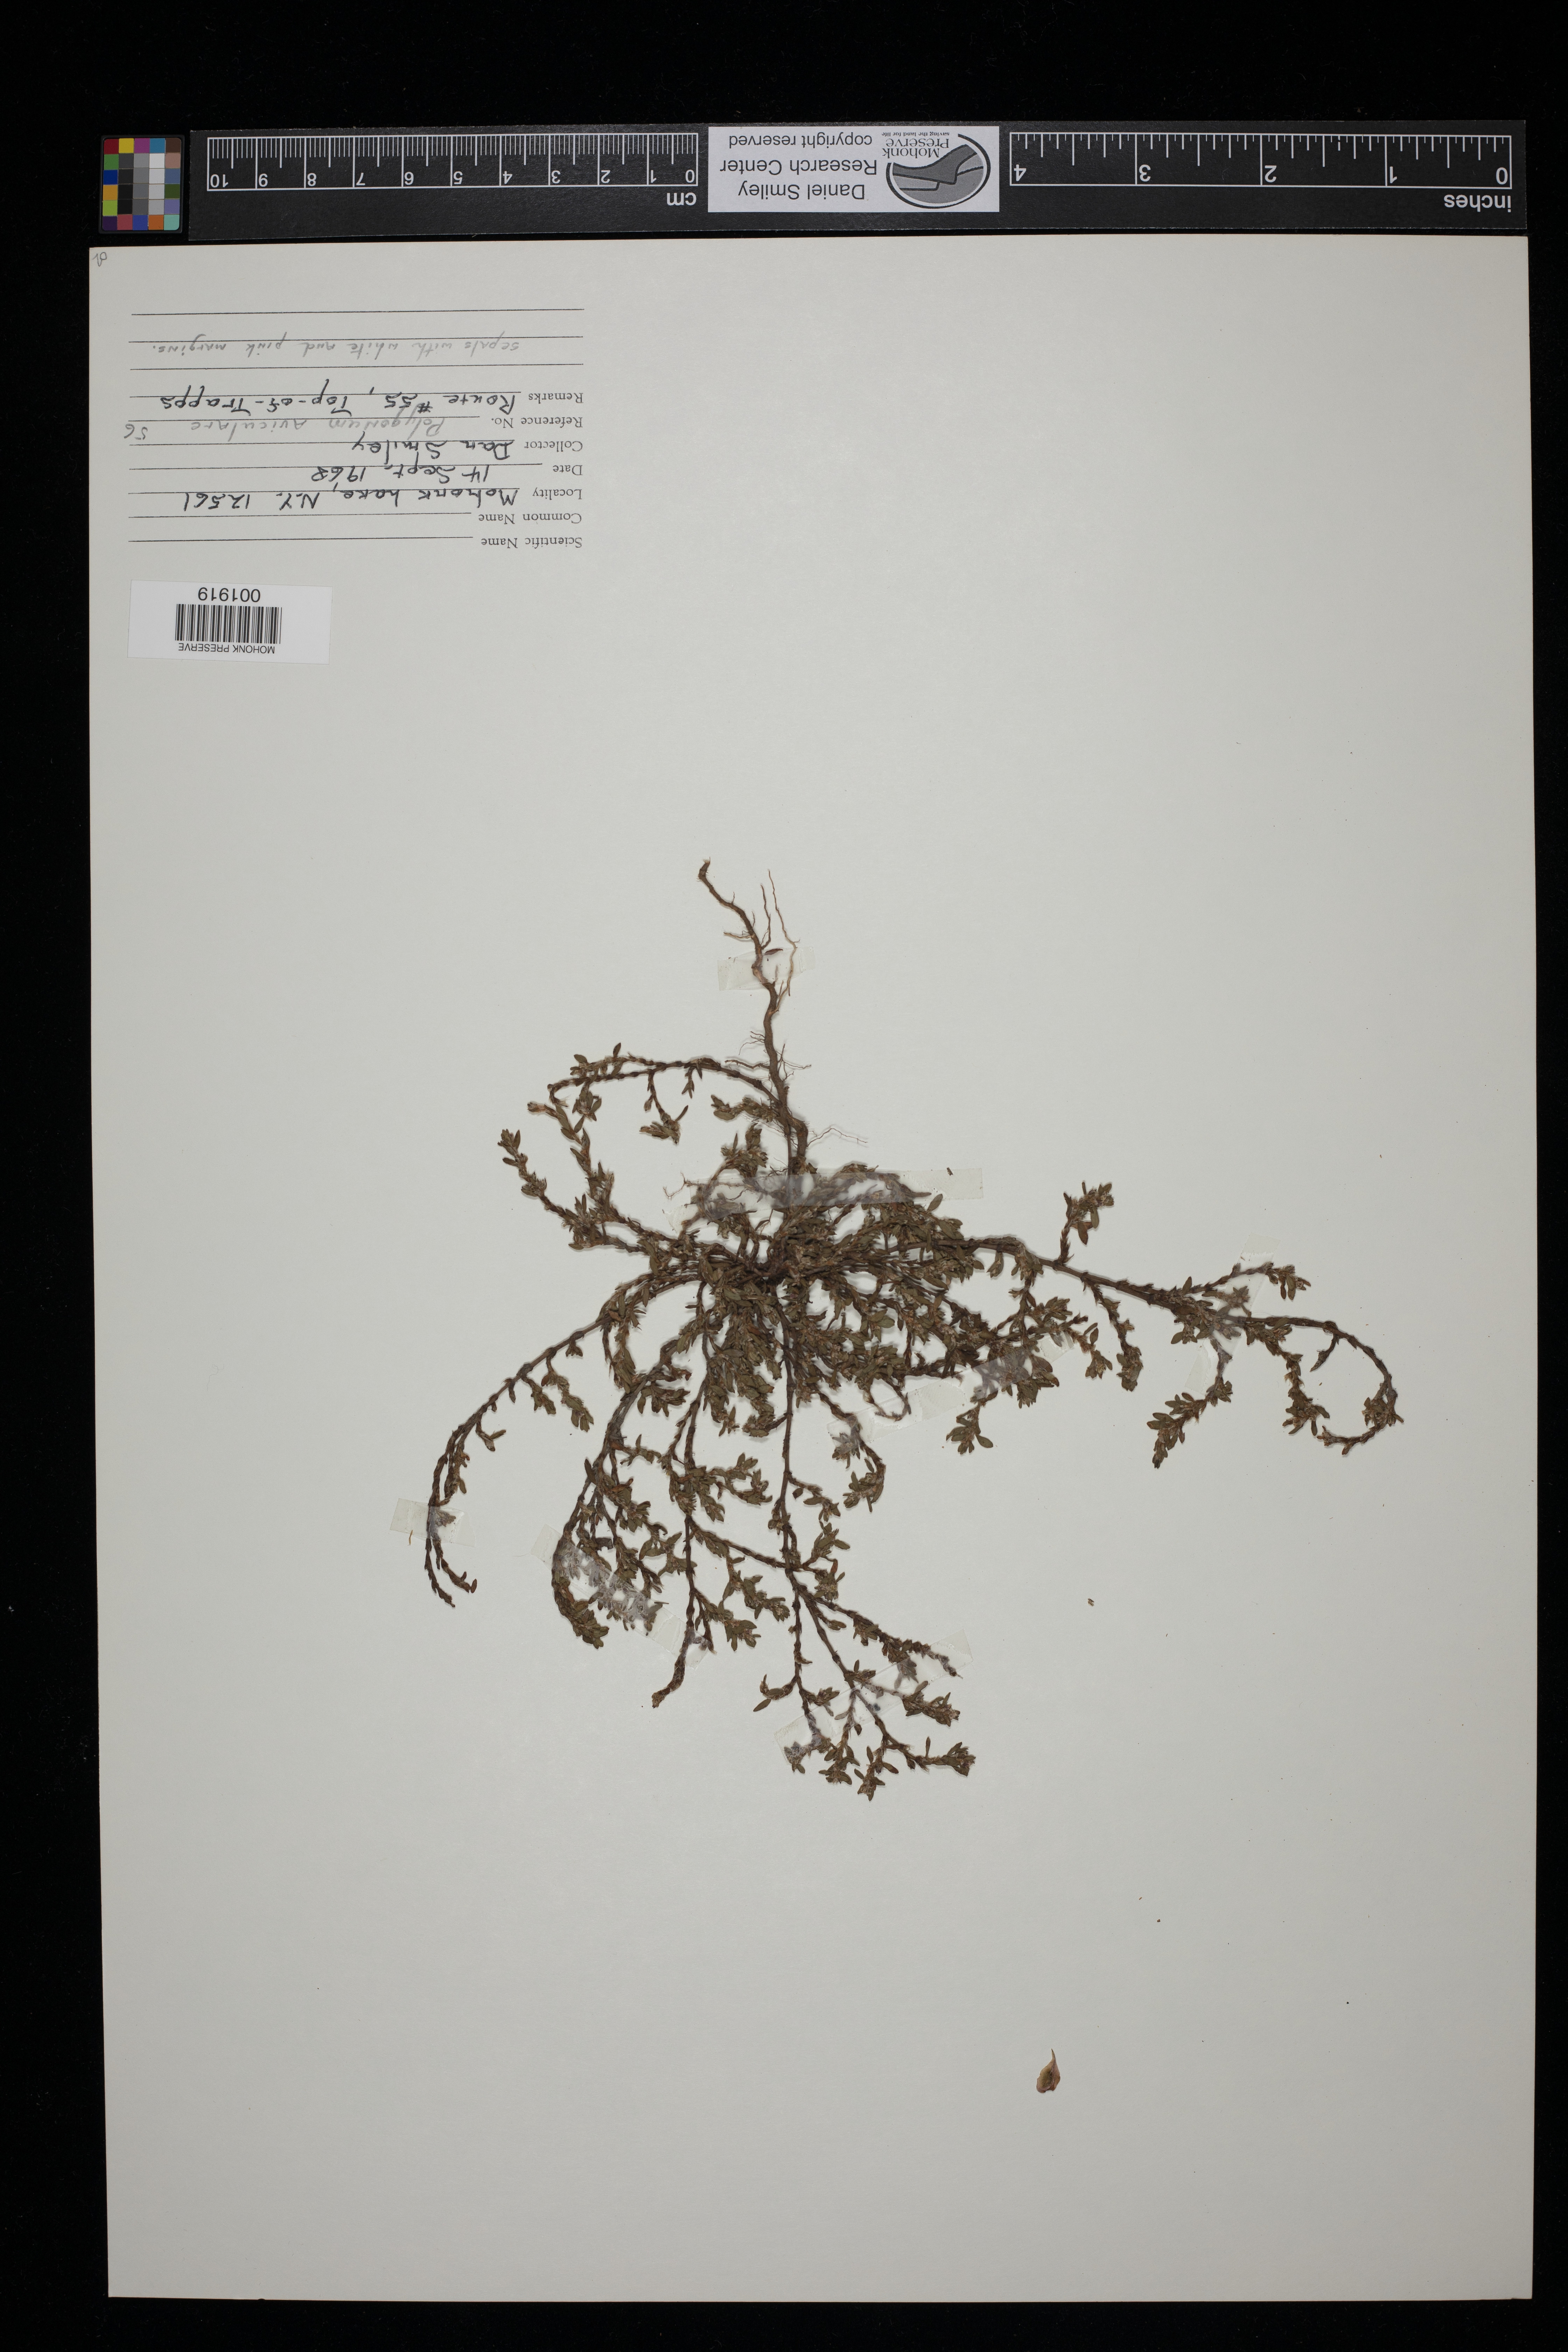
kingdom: Plantae
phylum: Tracheophyta
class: Magnoliopsida
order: Caryophyllales
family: Polygonaceae
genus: Polygonum
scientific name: Polygonum aviculare
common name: Prostrate knotweed
